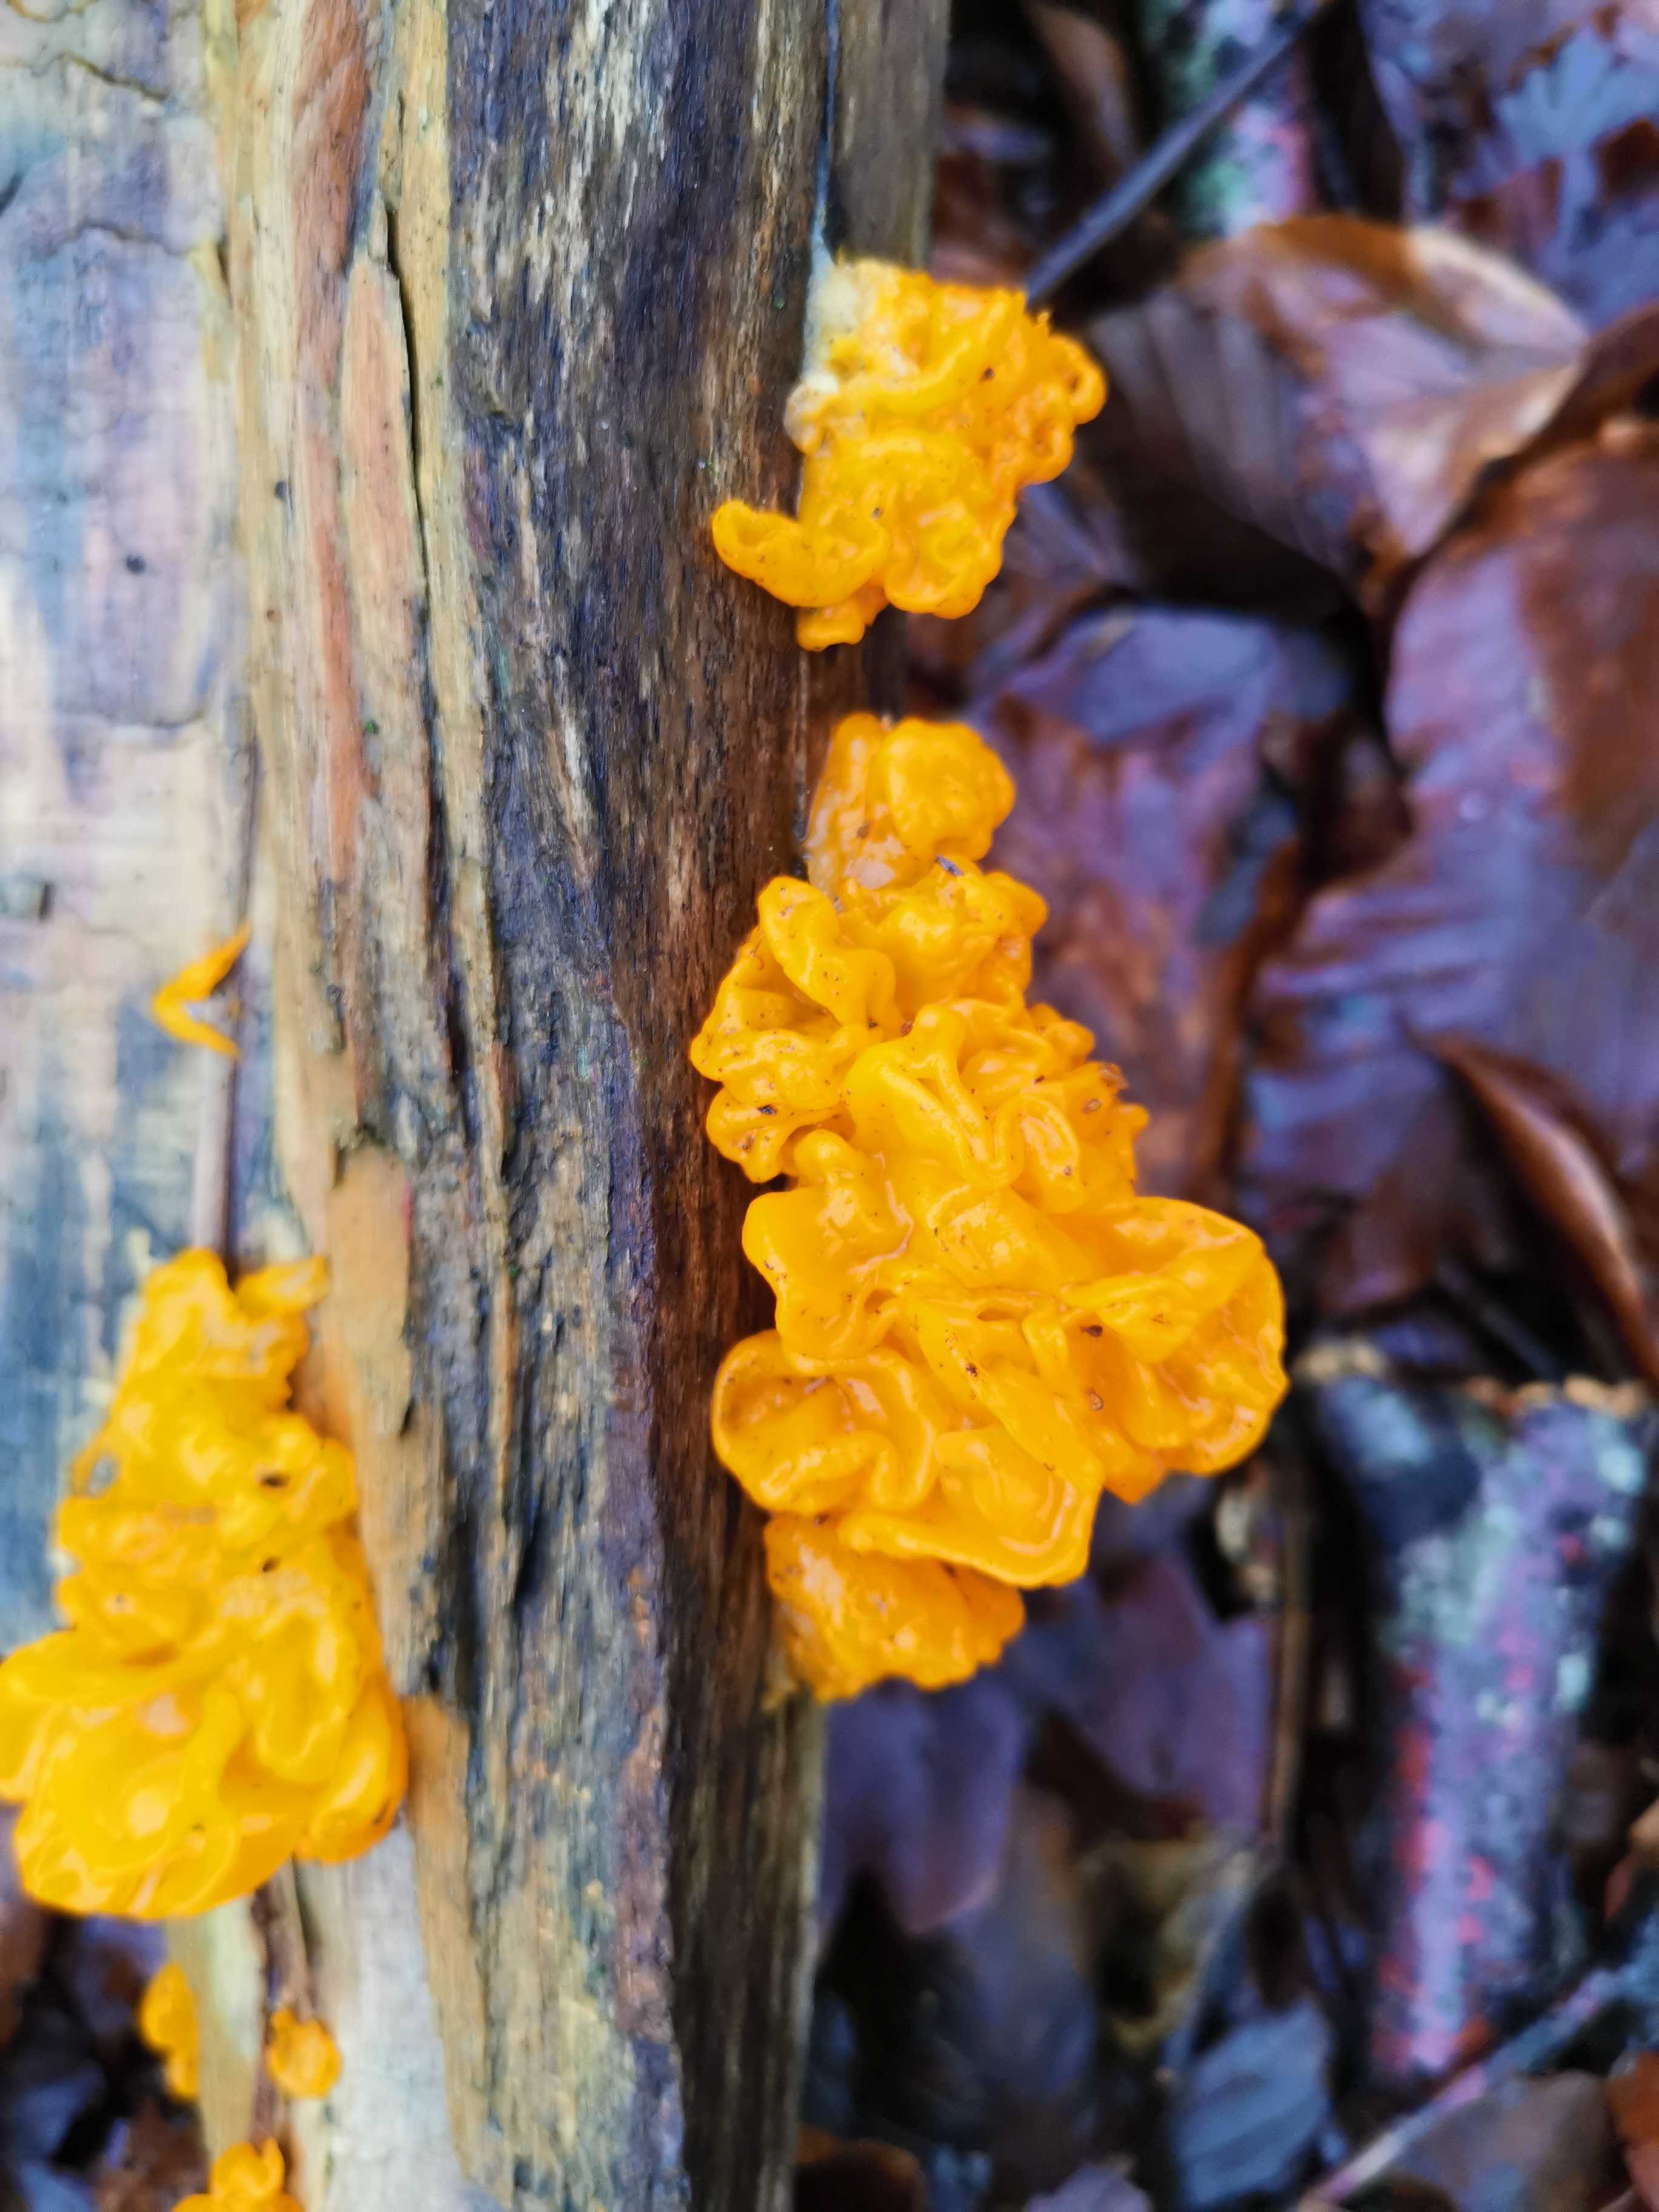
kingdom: Fungi
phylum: Basidiomycota
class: Tremellomycetes
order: Tremellales
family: Tremellaceae
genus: Tremella
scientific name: Tremella mesenterica
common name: gul bævresvamp
